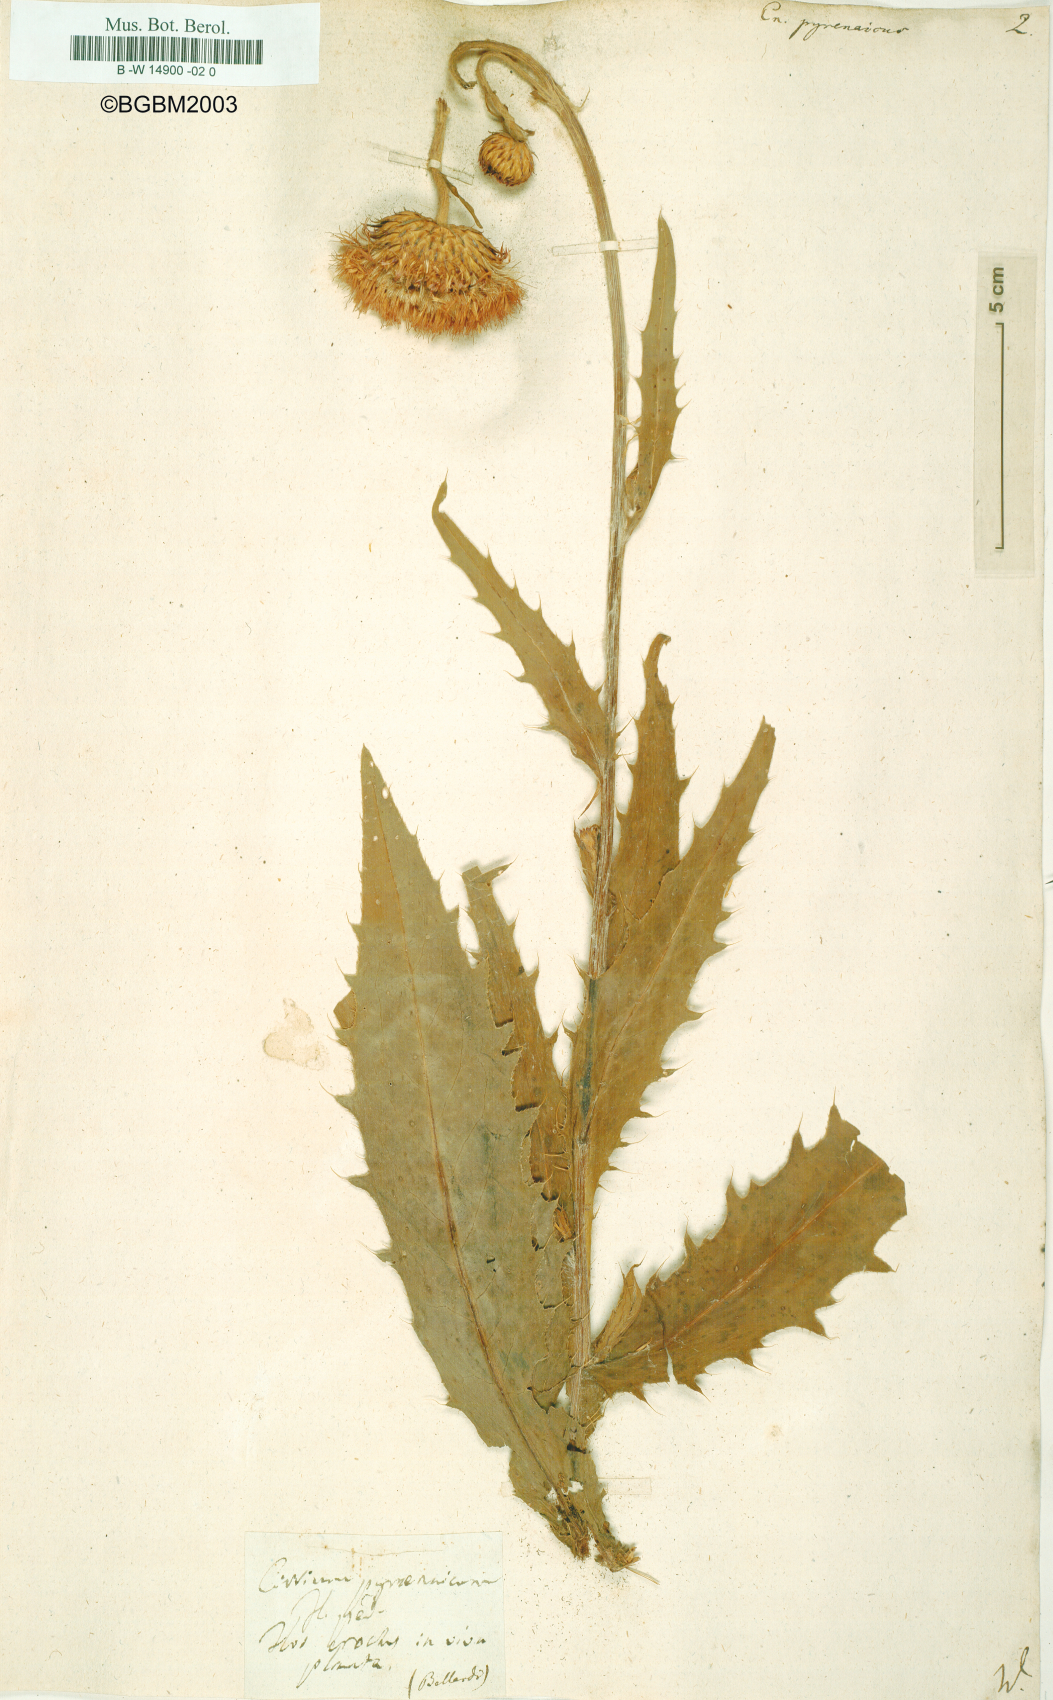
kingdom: Plantae
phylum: Tracheophyta
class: Magnoliopsida
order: Asterales
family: Asteraceae
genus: Cirsium
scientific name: Cirsium pyrenaicum
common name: Pyrenean thistle
